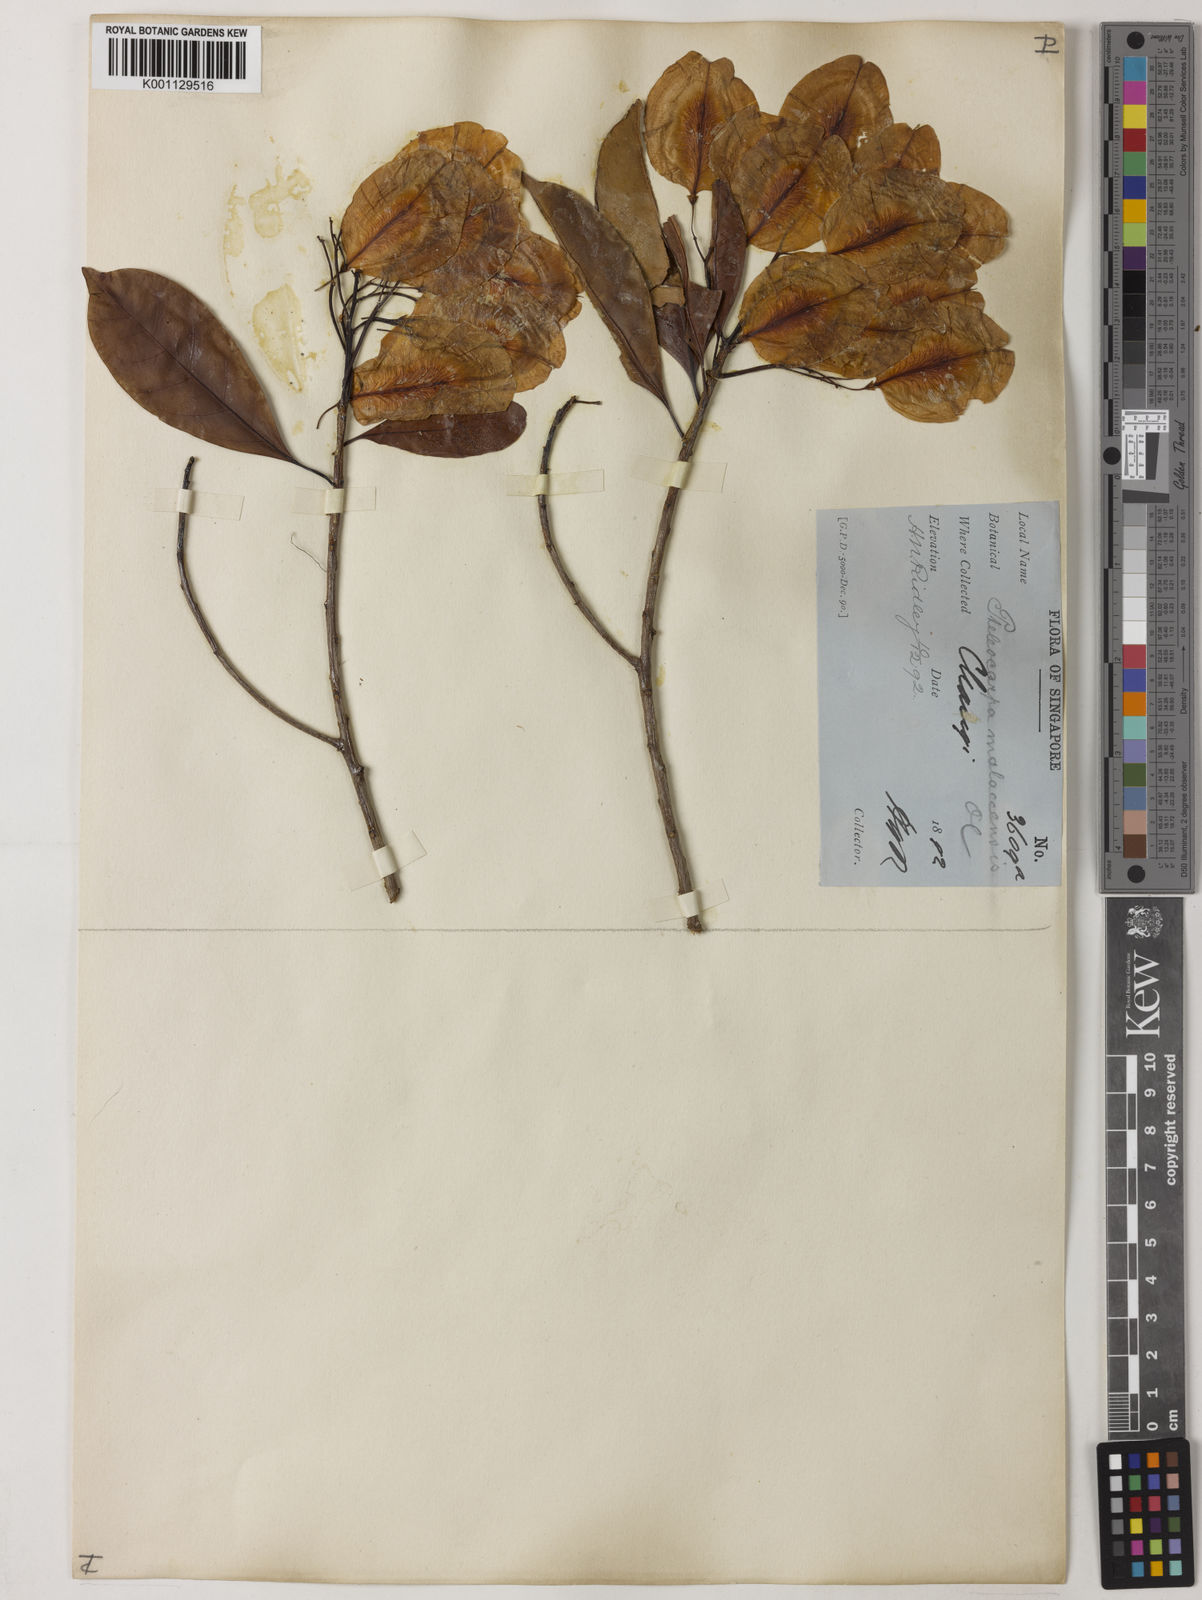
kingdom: Plantae
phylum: Tracheophyta
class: Magnoliopsida
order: Gentianales
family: Gelsemiaceae
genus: Pteleocarpa
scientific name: Pteleocarpa lamponga
